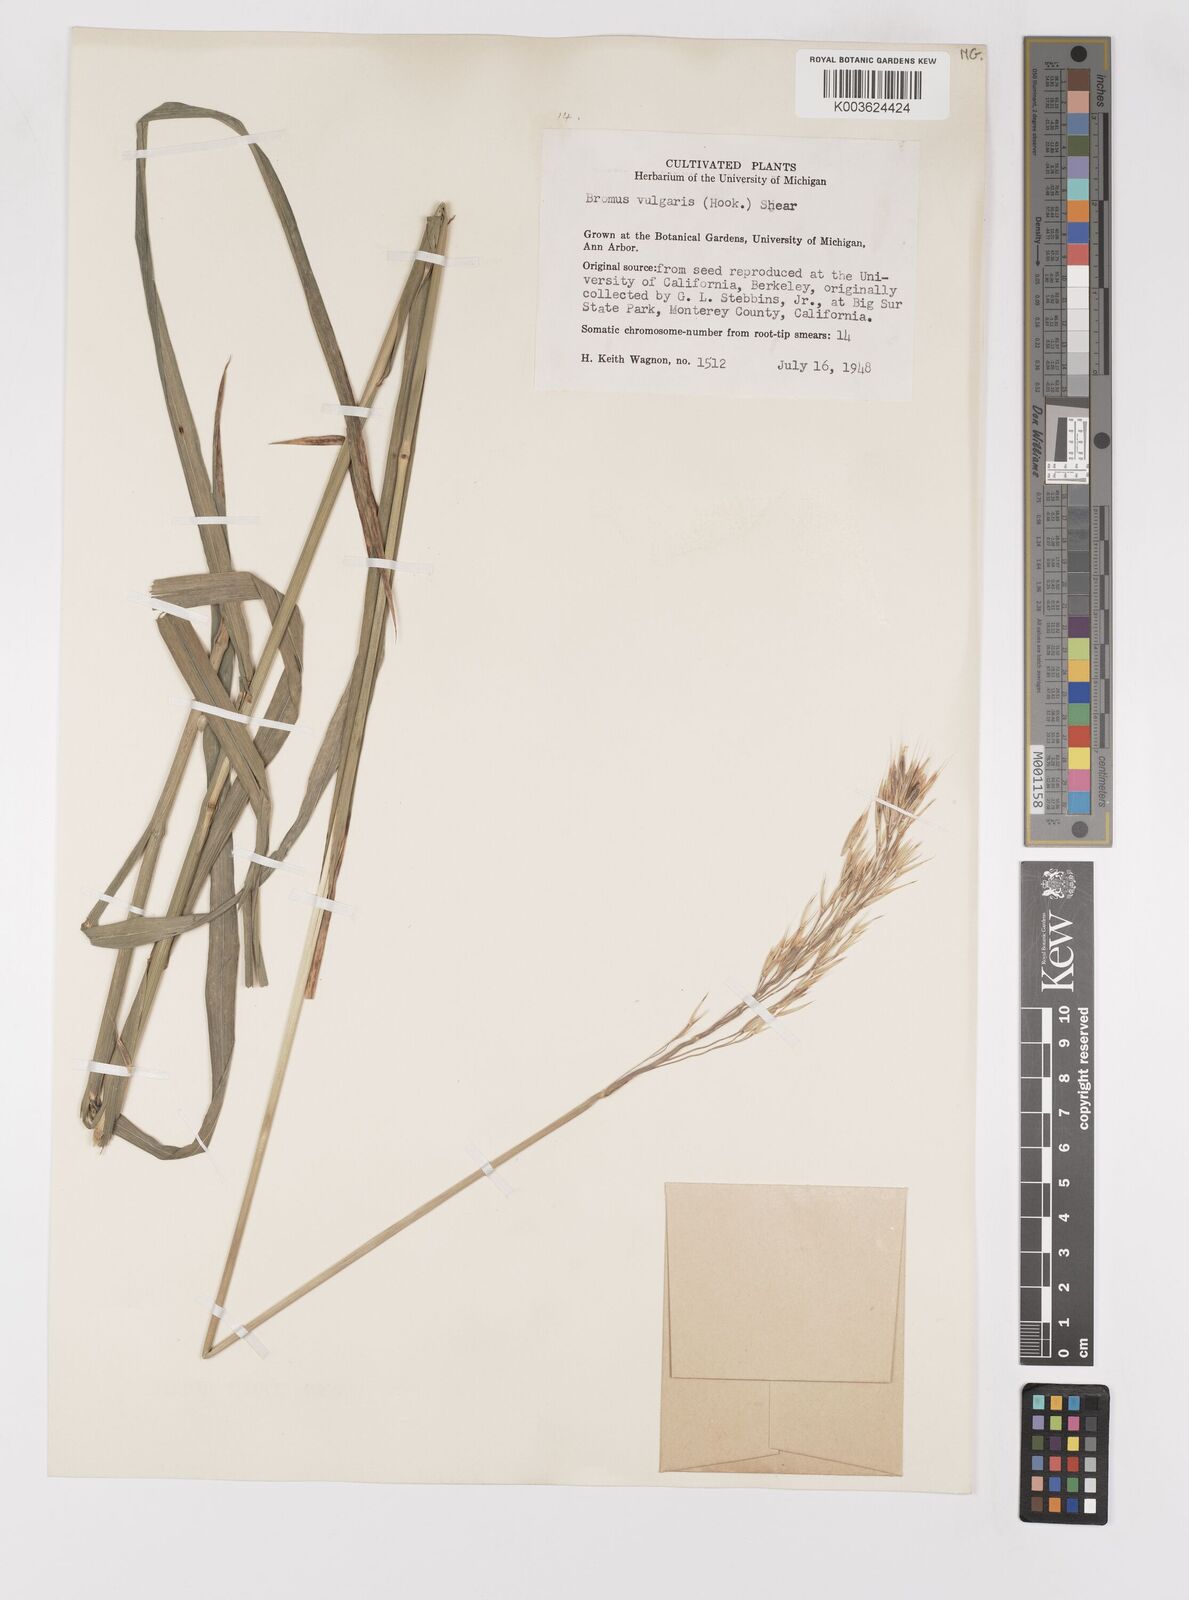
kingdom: Plantae
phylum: Tracheophyta
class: Liliopsida
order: Poales
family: Poaceae
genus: Bromus
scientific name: Bromus vulgaris
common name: Columbia brome
